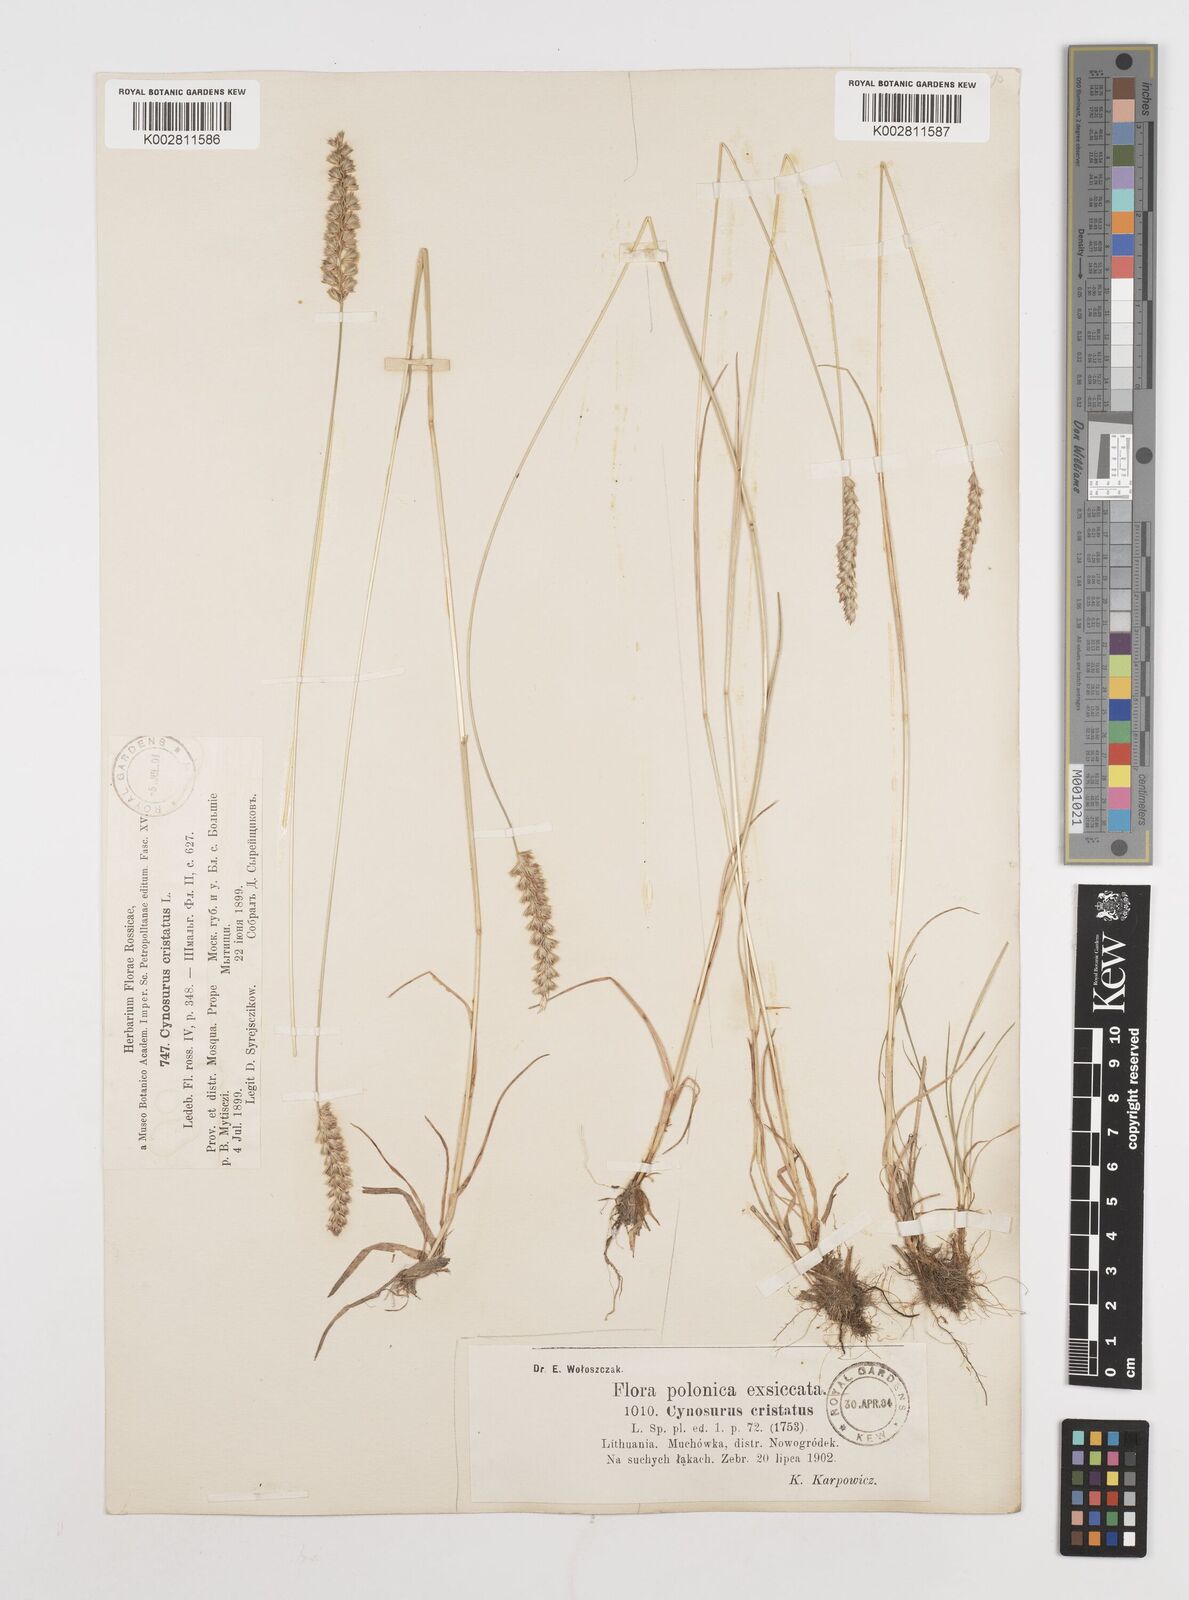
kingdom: Plantae
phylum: Tracheophyta
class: Liliopsida
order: Poales
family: Poaceae
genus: Cynosurus
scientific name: Cynosurus cristatus
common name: Crested dog's-tail
